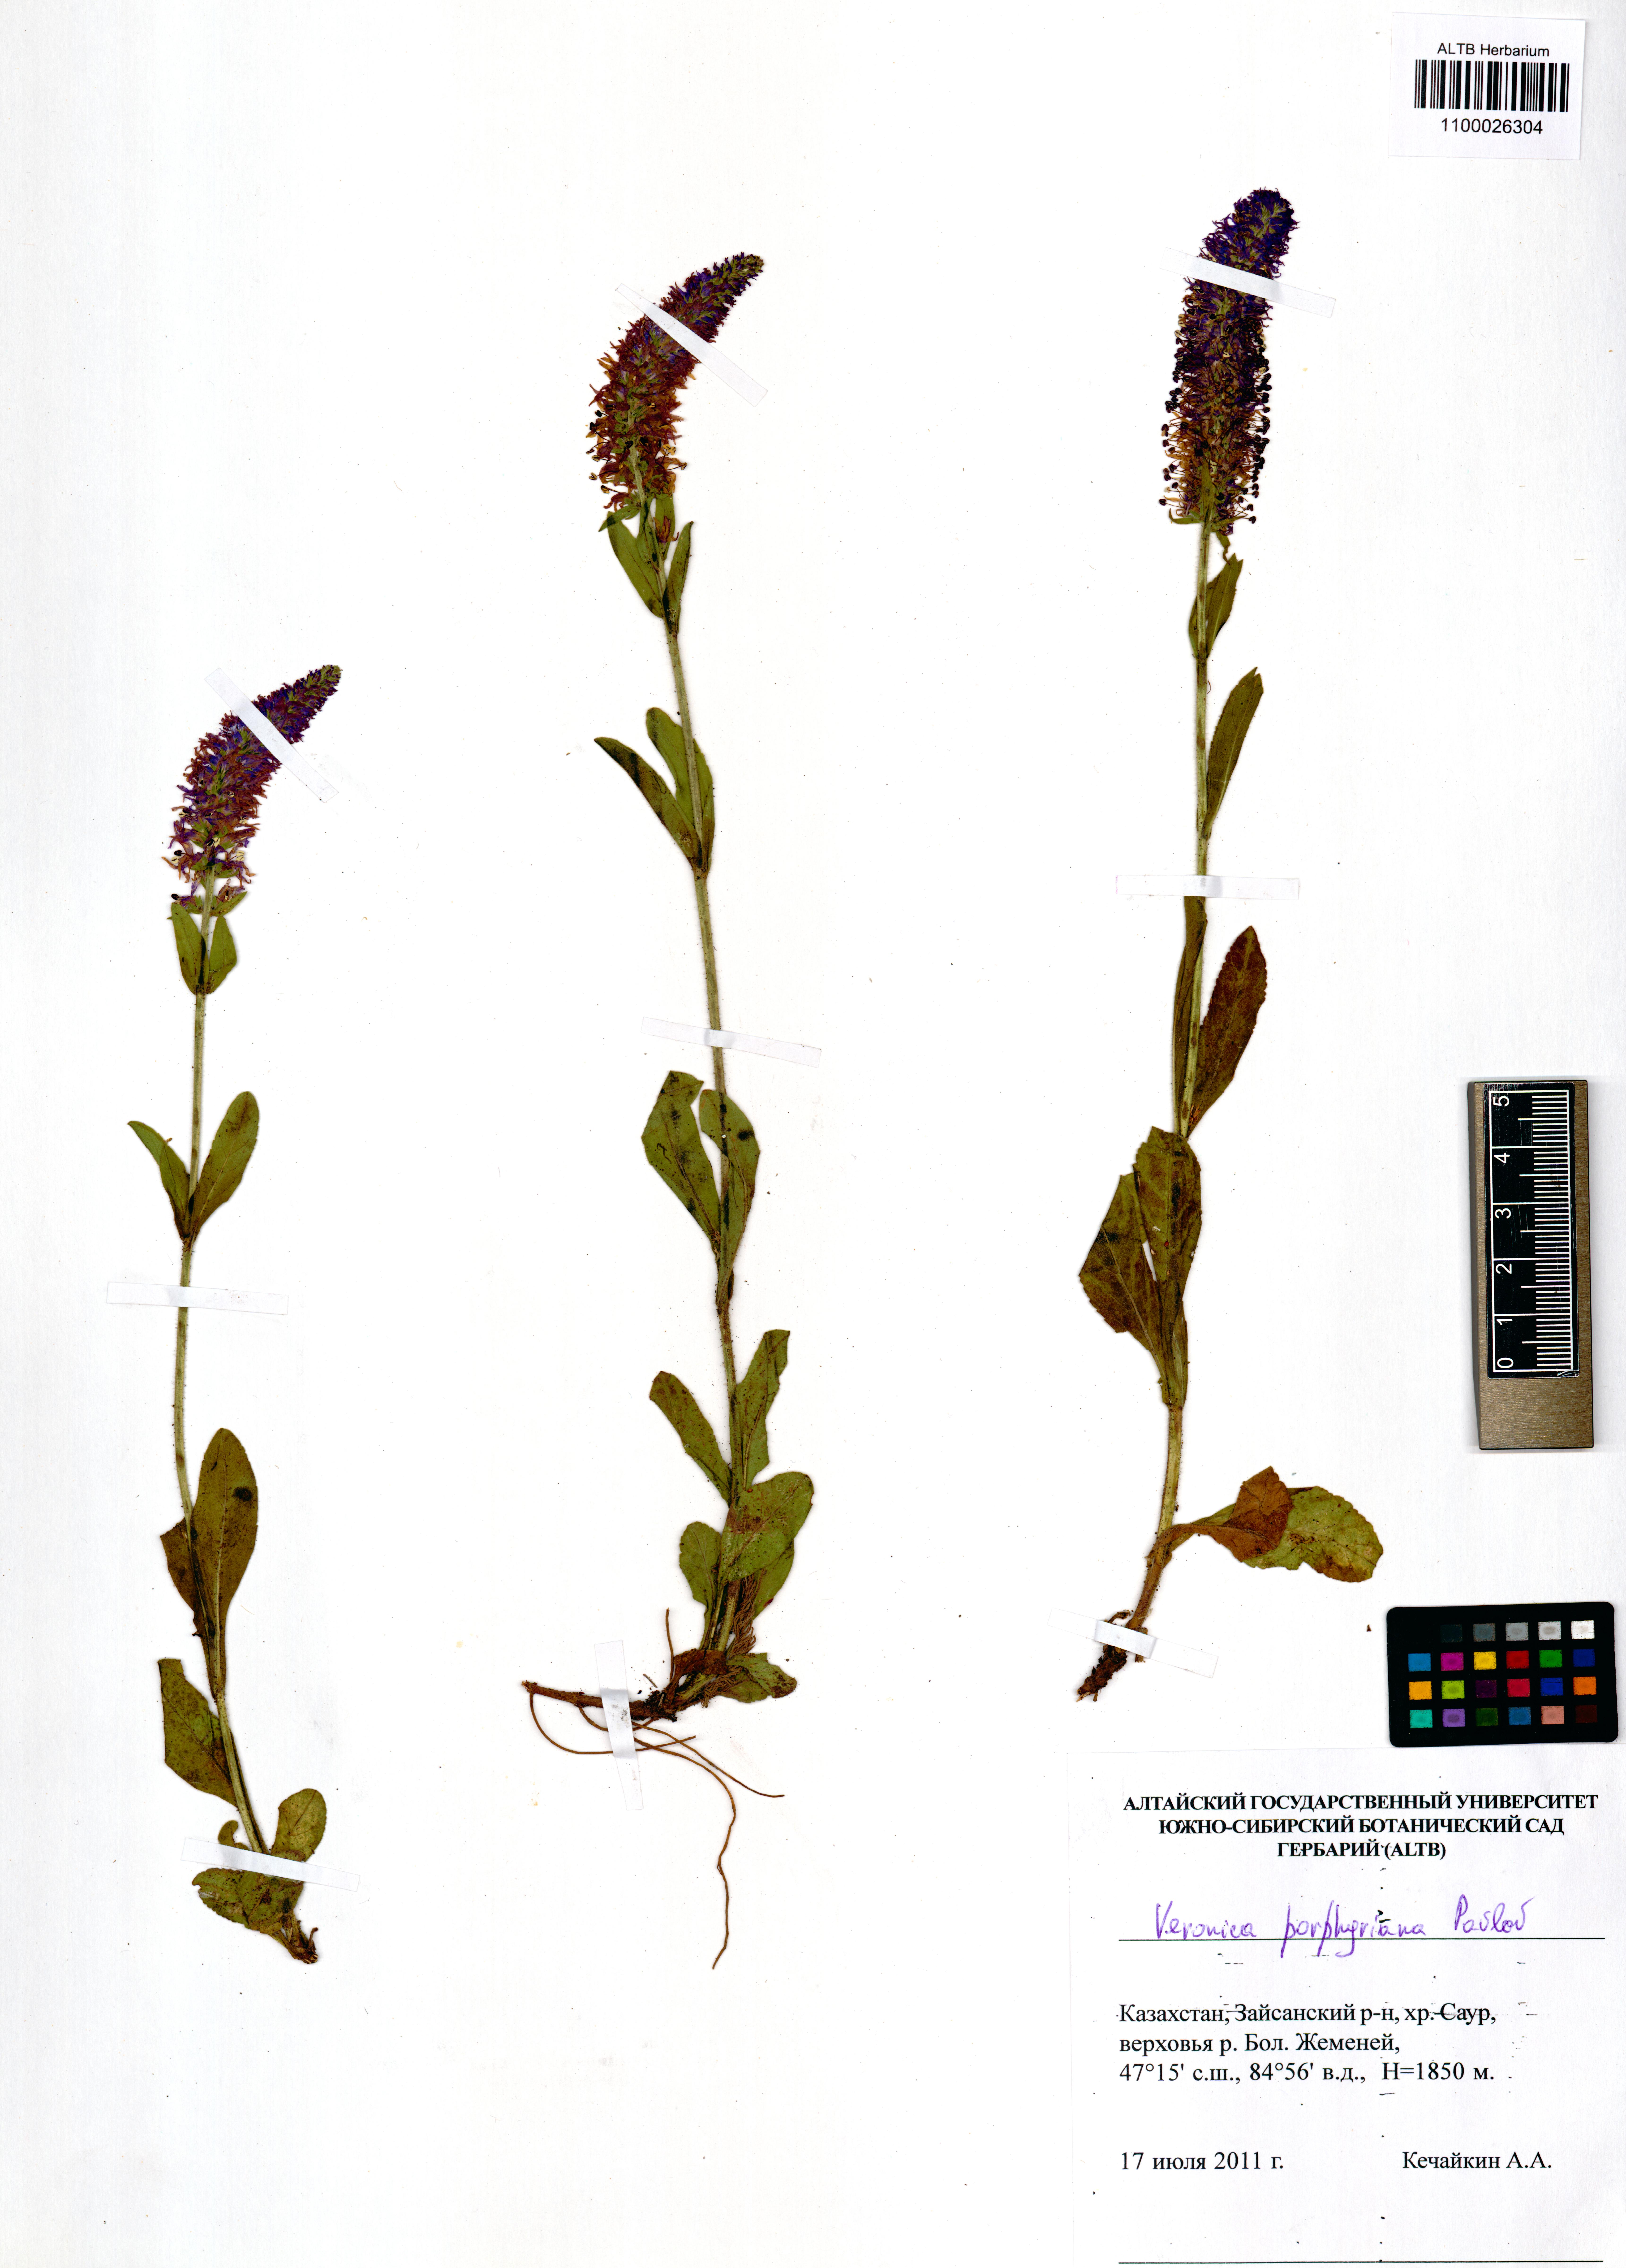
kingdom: Plantae
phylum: Tracheophyta
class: Magnoliopsida
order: Lamiales
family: Plantaginaceae
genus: Veronica
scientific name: Veronica porphyriana
